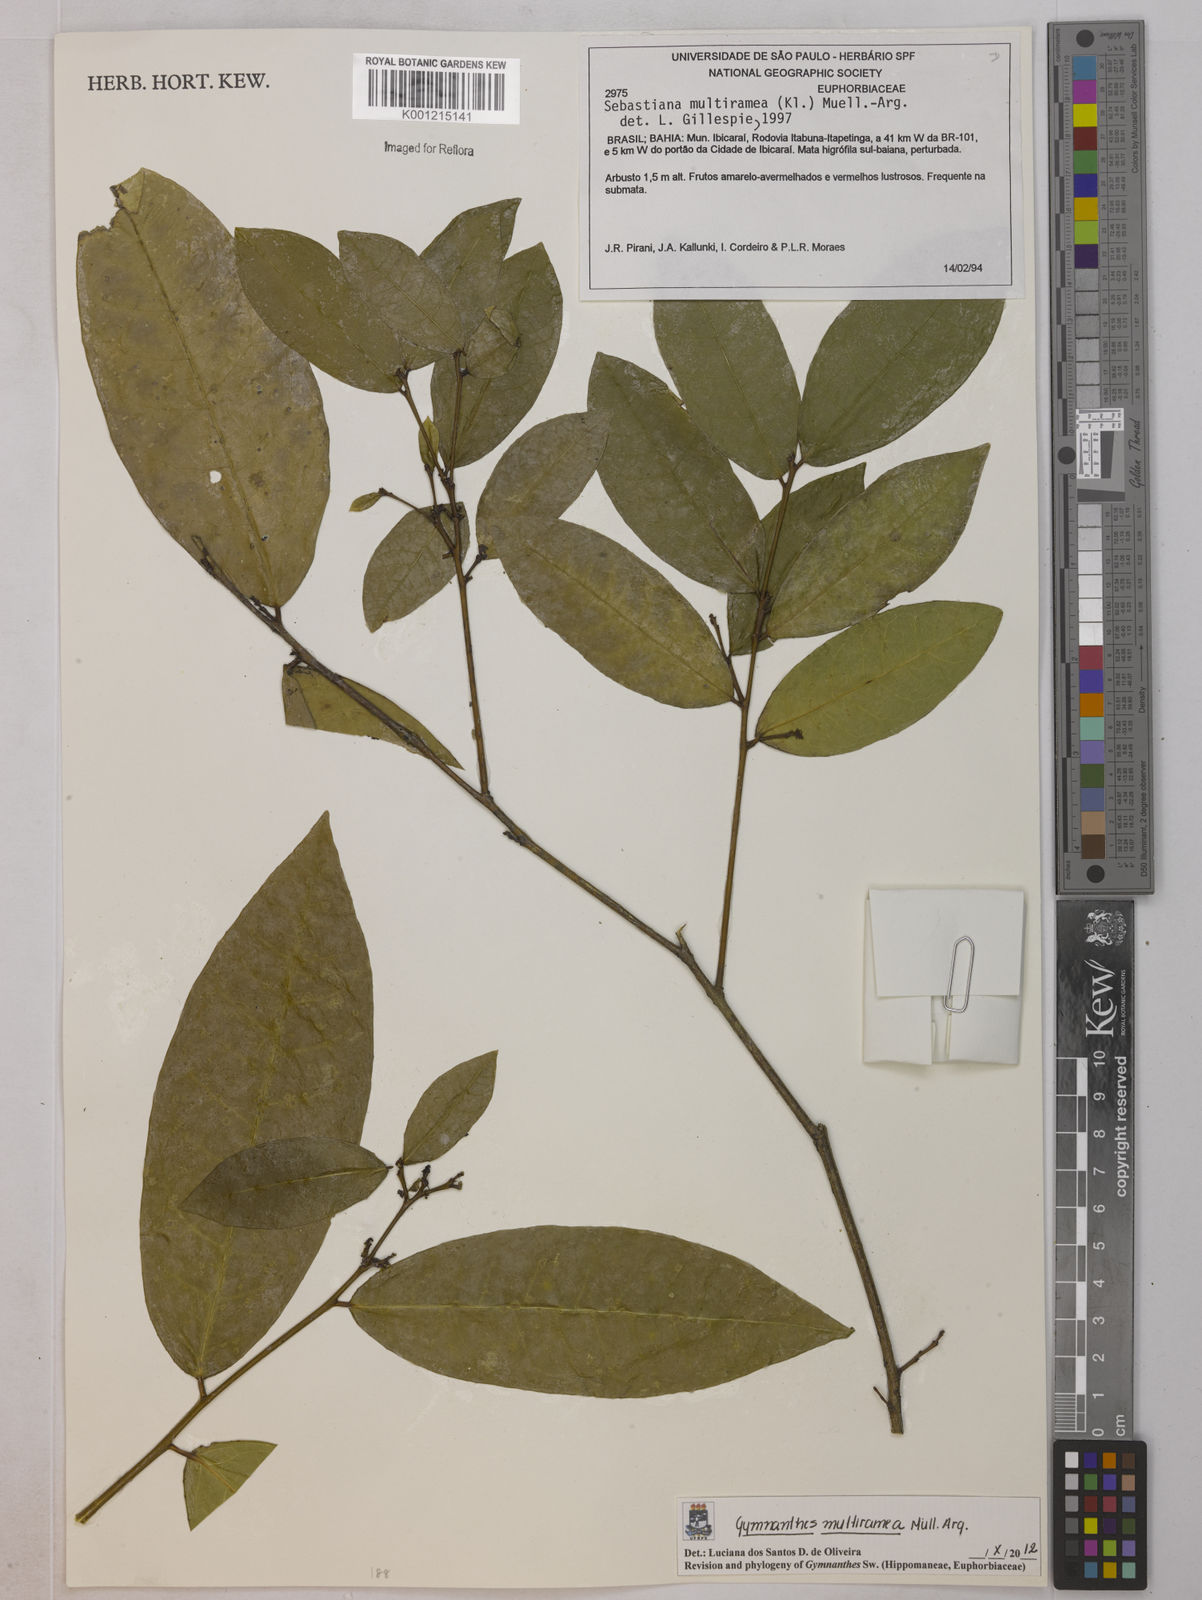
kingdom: Plantae
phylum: Tracheophyta
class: Magnoliopsida
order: Malpighiales
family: Euphorbiaceae
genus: Gymnanthes
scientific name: Gymnanthes
